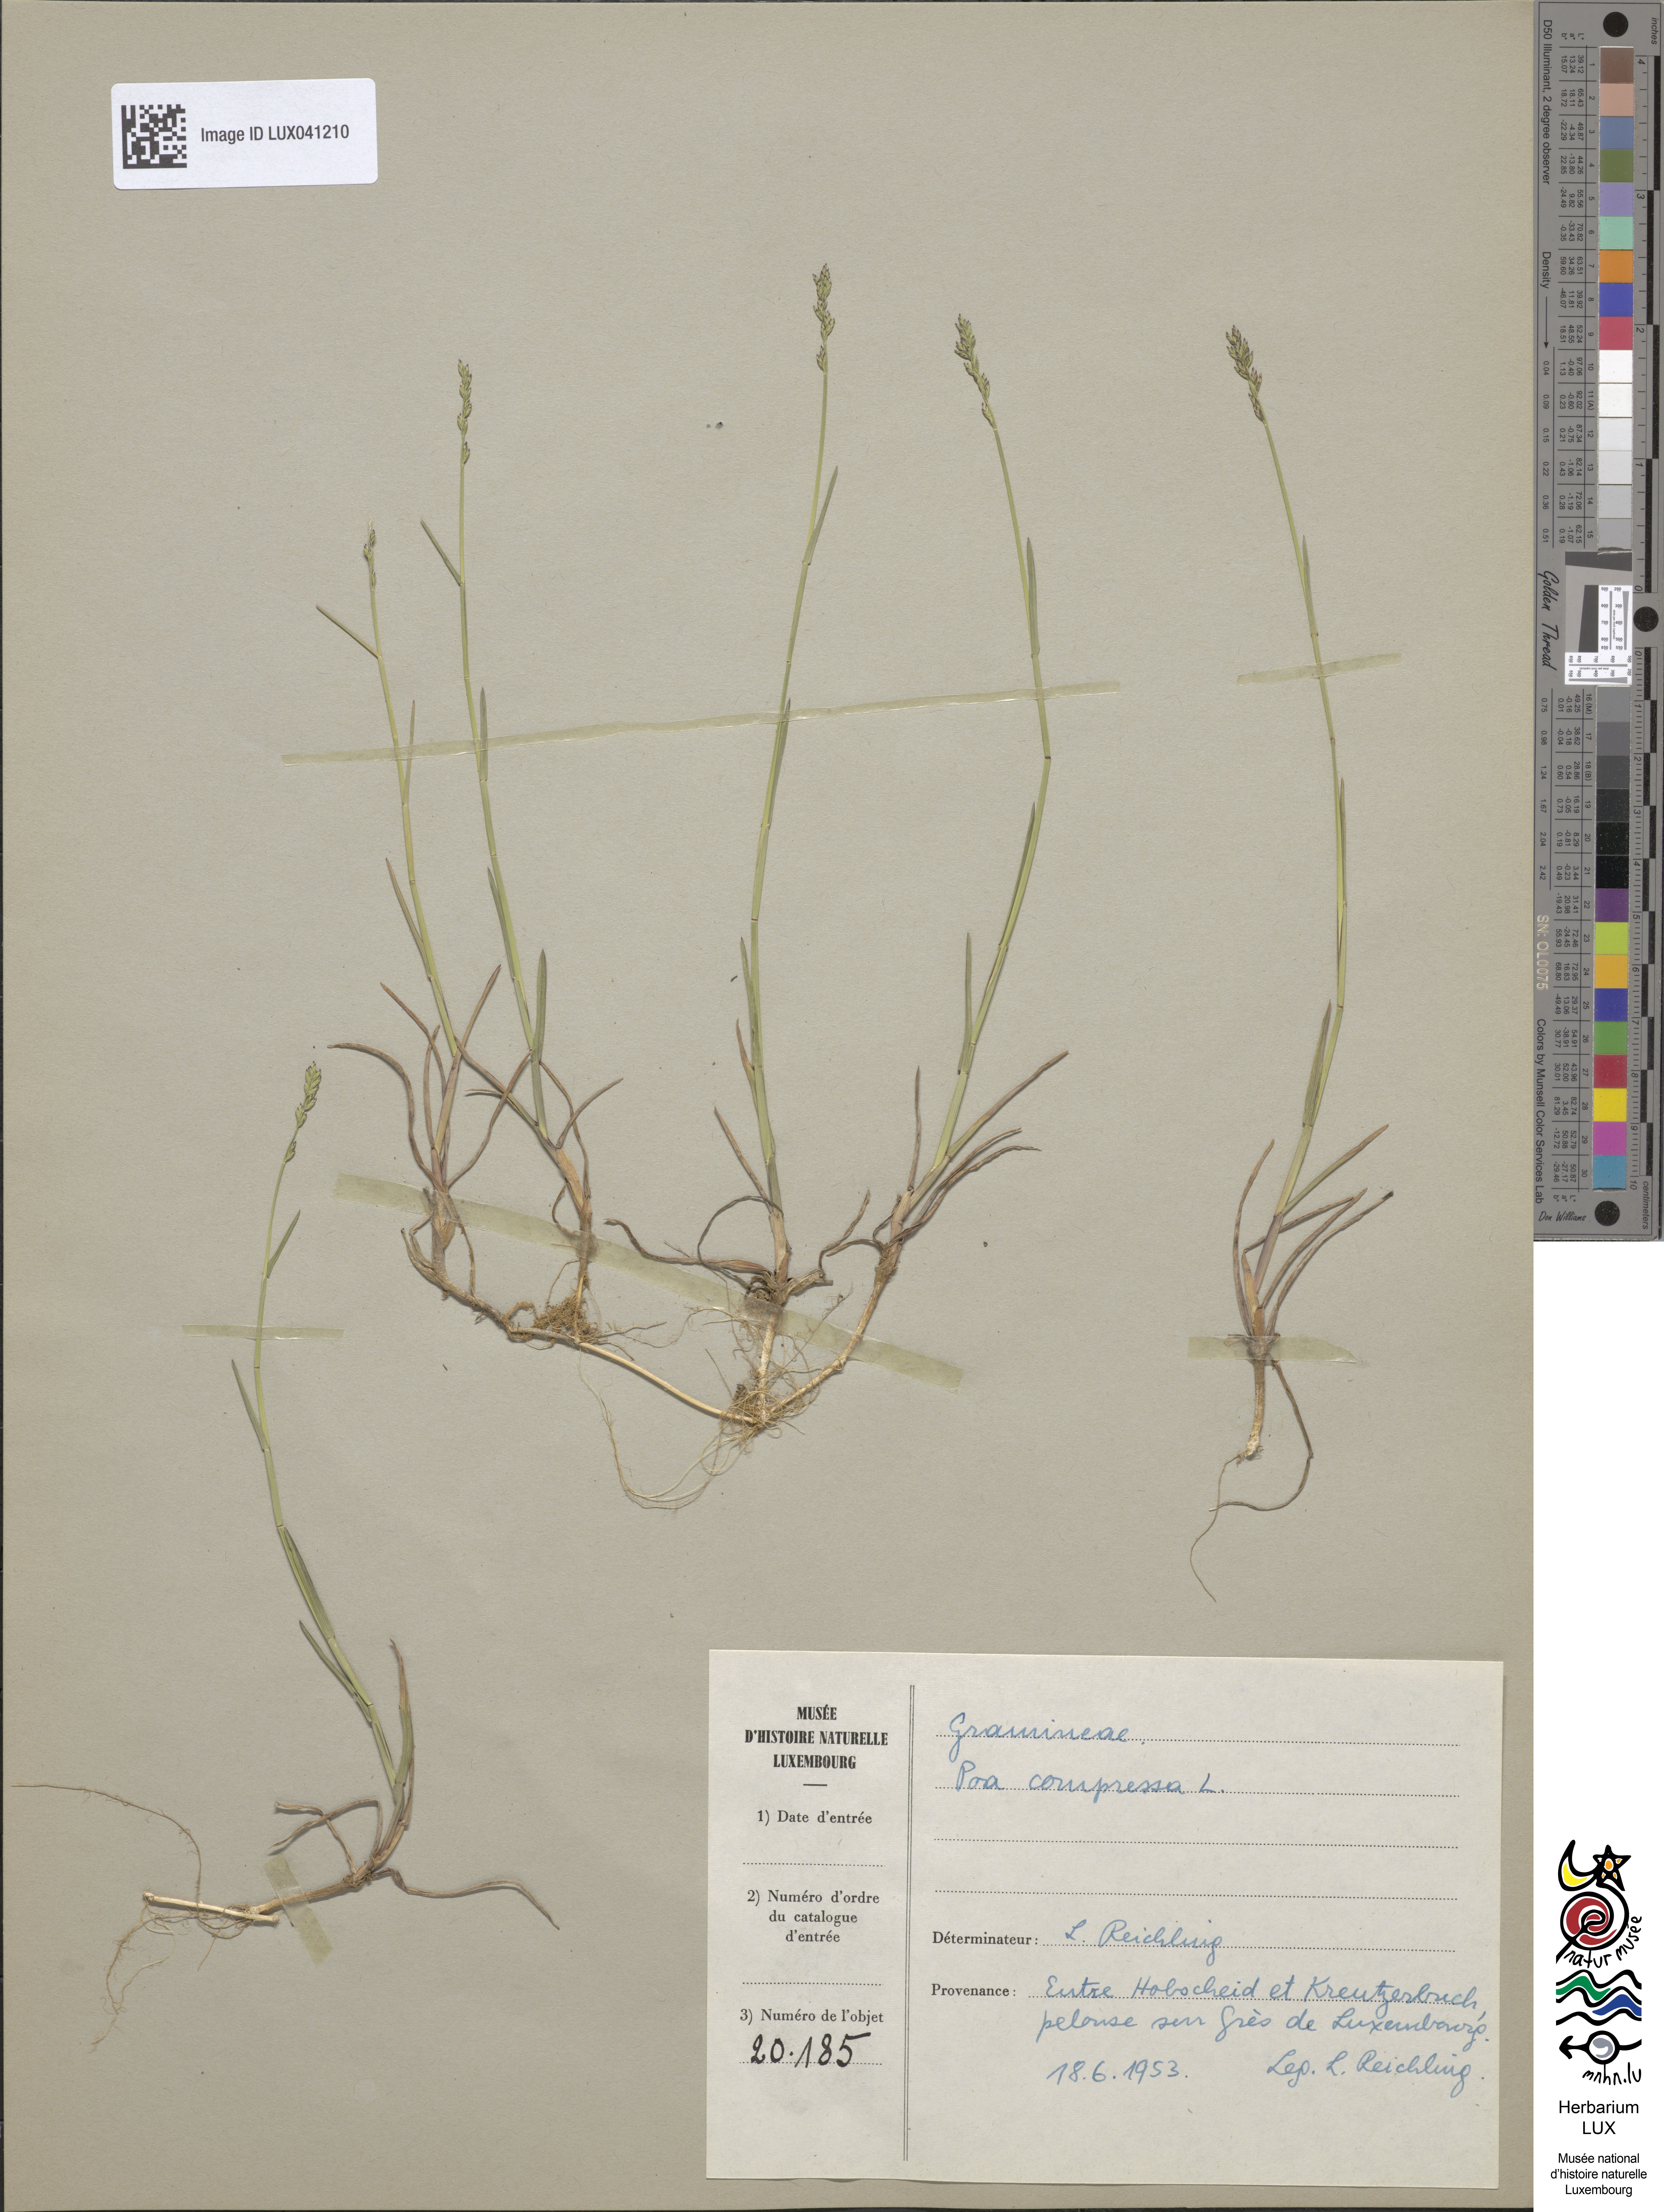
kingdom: Plantae
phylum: Tracheophyta
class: Liliopsida
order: Poales
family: Poaceae
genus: Poa
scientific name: Poa compressa
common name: Canada bluegrass
